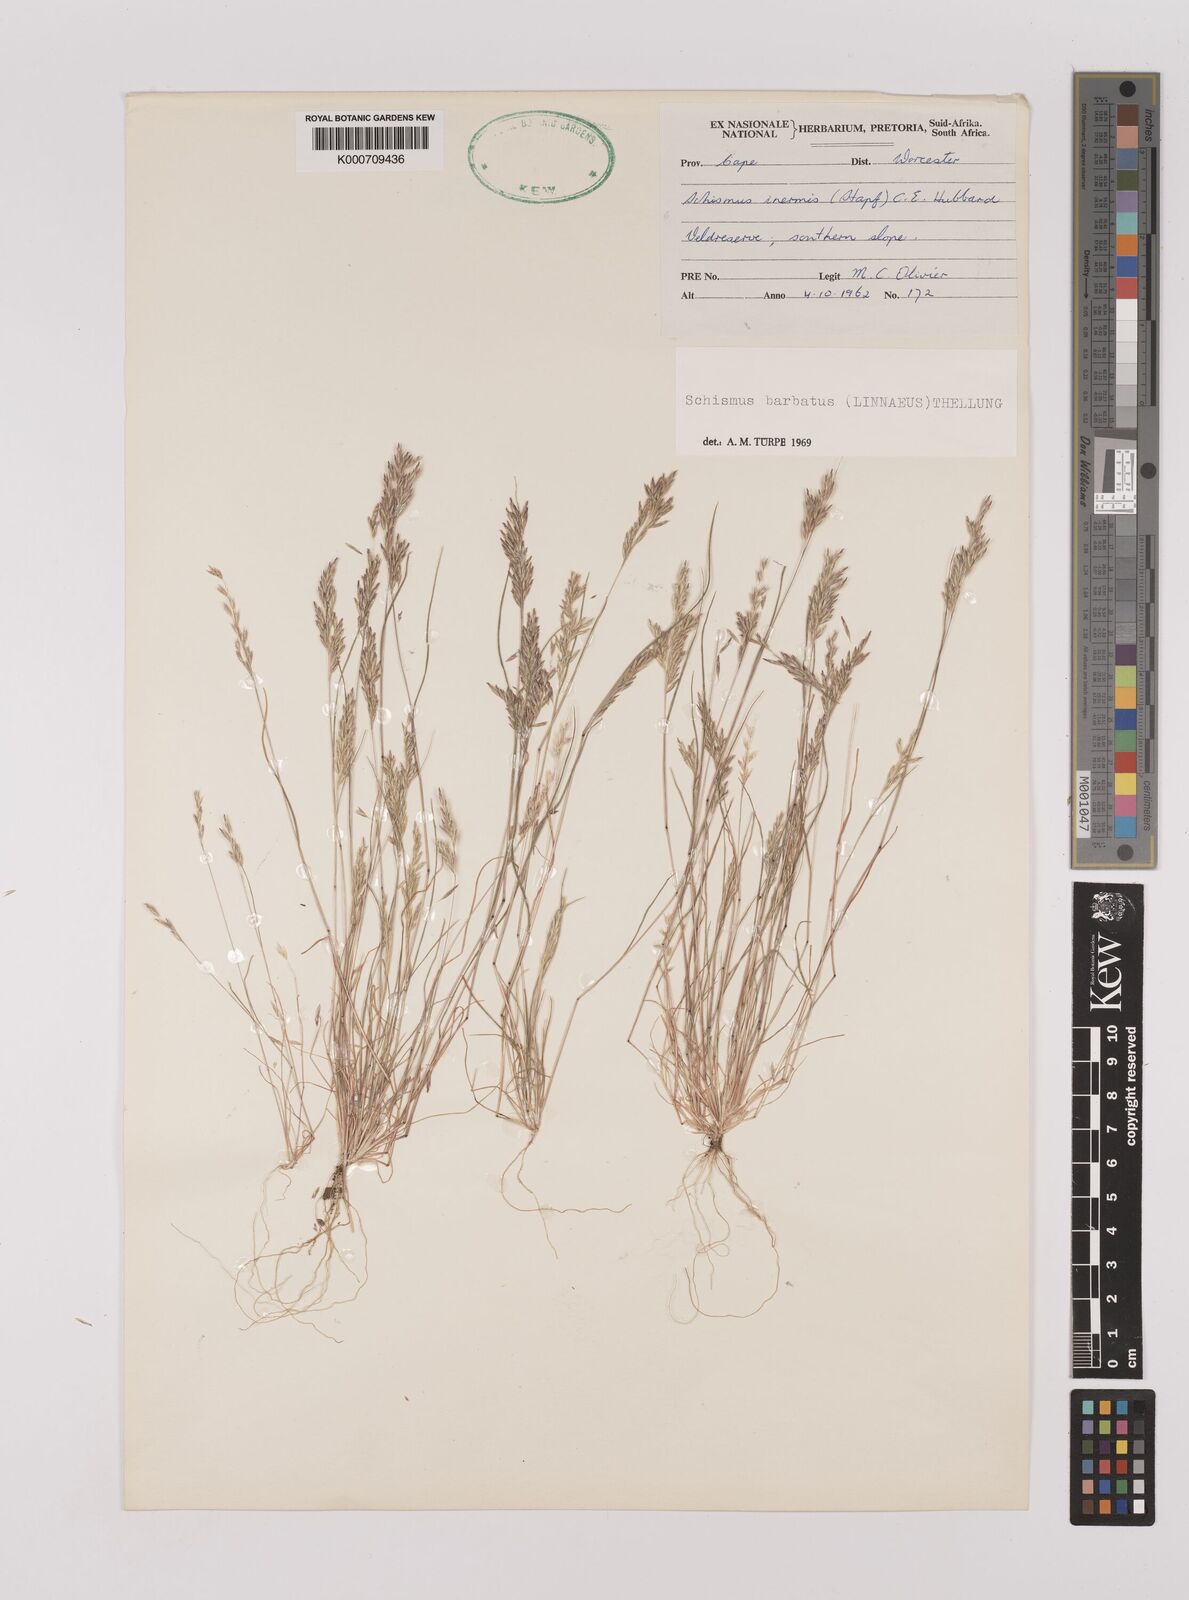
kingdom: Plantae
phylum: Tracheophyta
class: Liliopsida
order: Poales
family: Poaceae
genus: Schismus
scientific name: Schismus barbatus
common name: Kelch-grass
